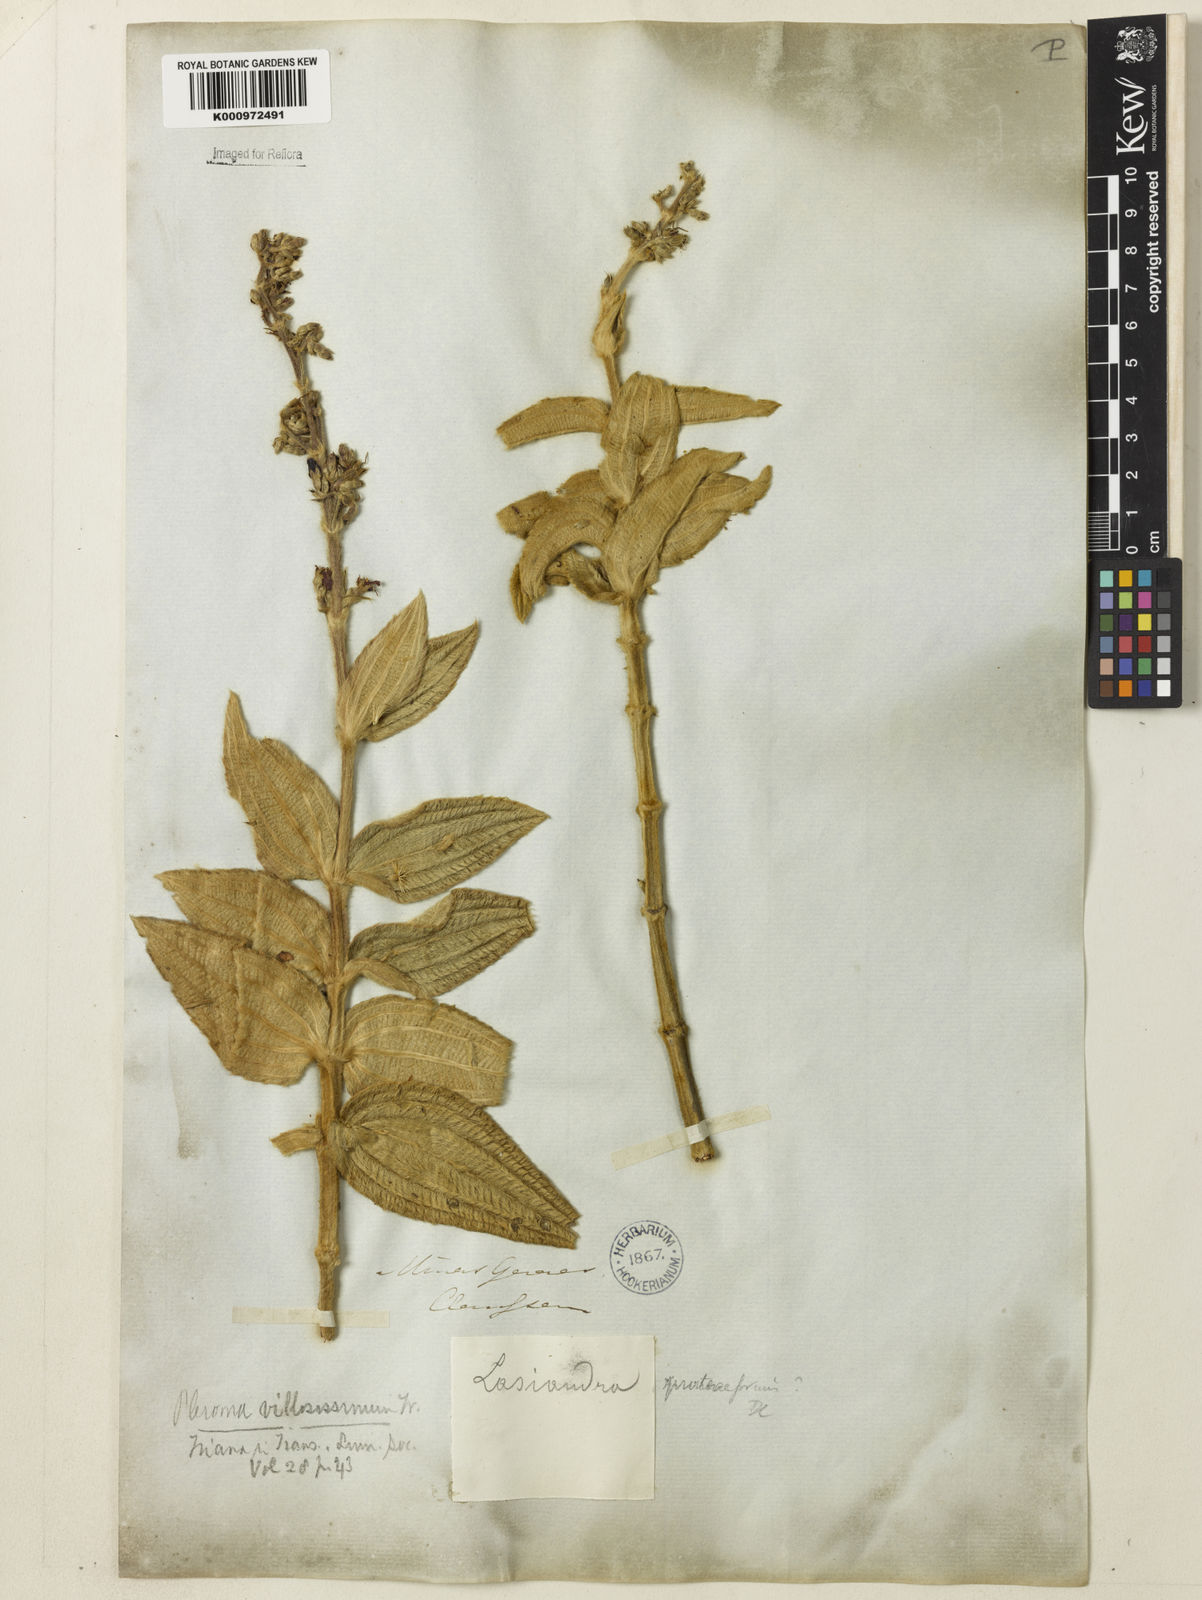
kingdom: Plantae
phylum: Tracheophyta
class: Magnoliopsida
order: Myrtales
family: Melastomataceae
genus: Pleroma
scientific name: Pleroma villosissimum
